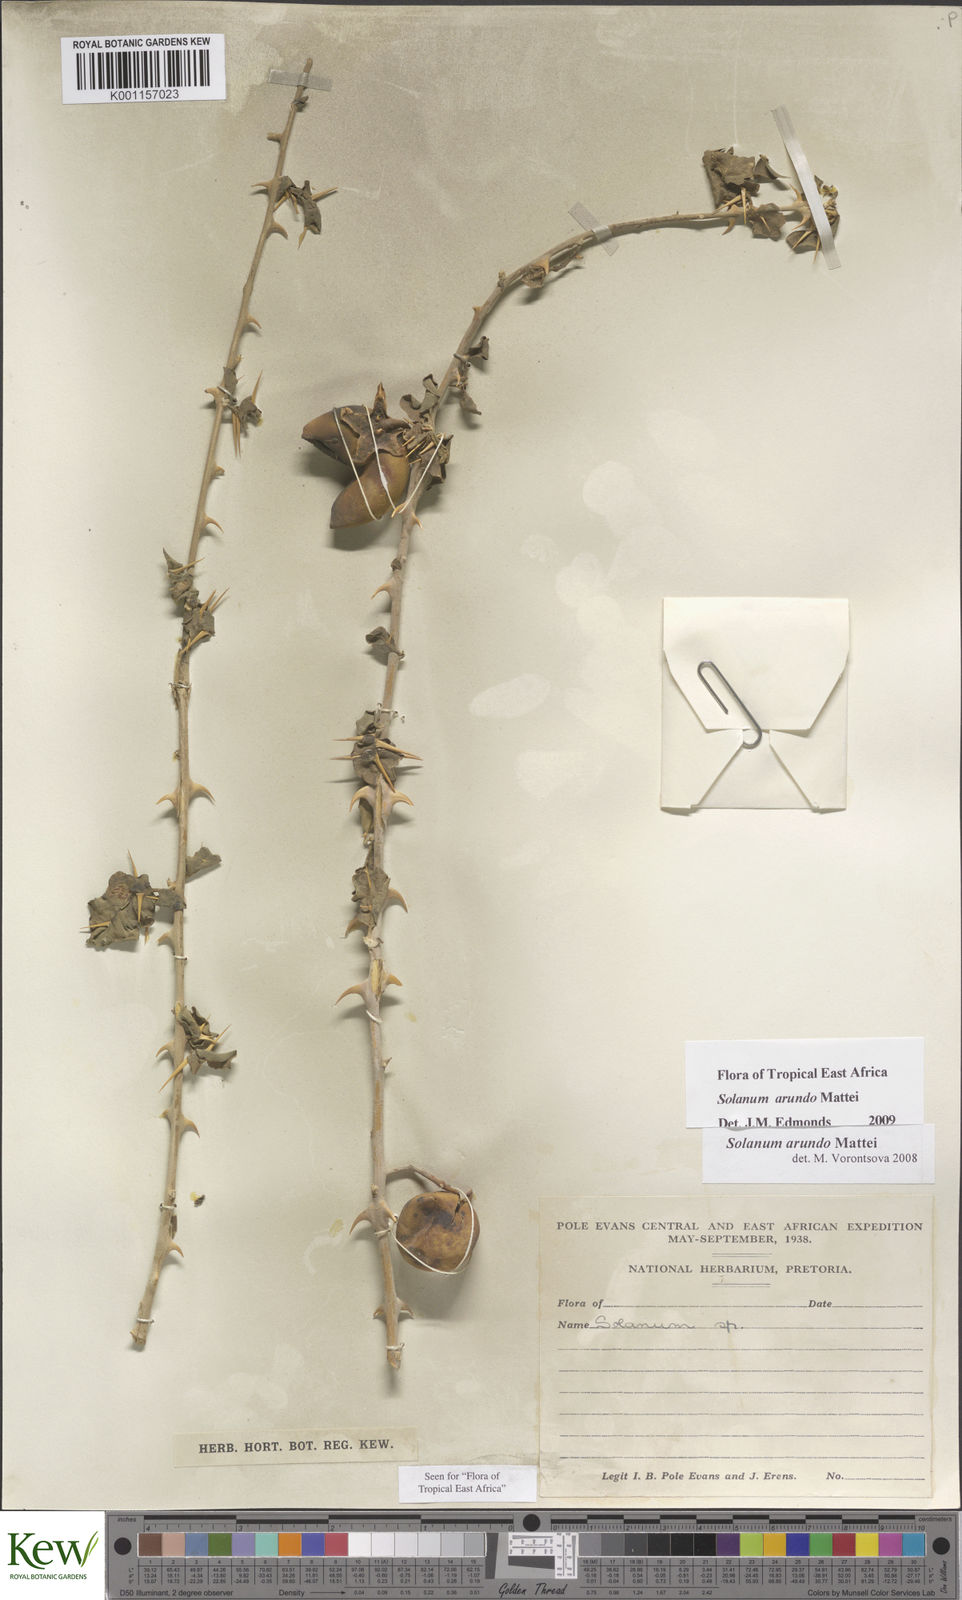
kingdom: Plantae
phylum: Tracheophyta
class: Magnoliopsida
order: Solanales
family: Solanaceae
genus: Solanum
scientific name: Solanum arundo
